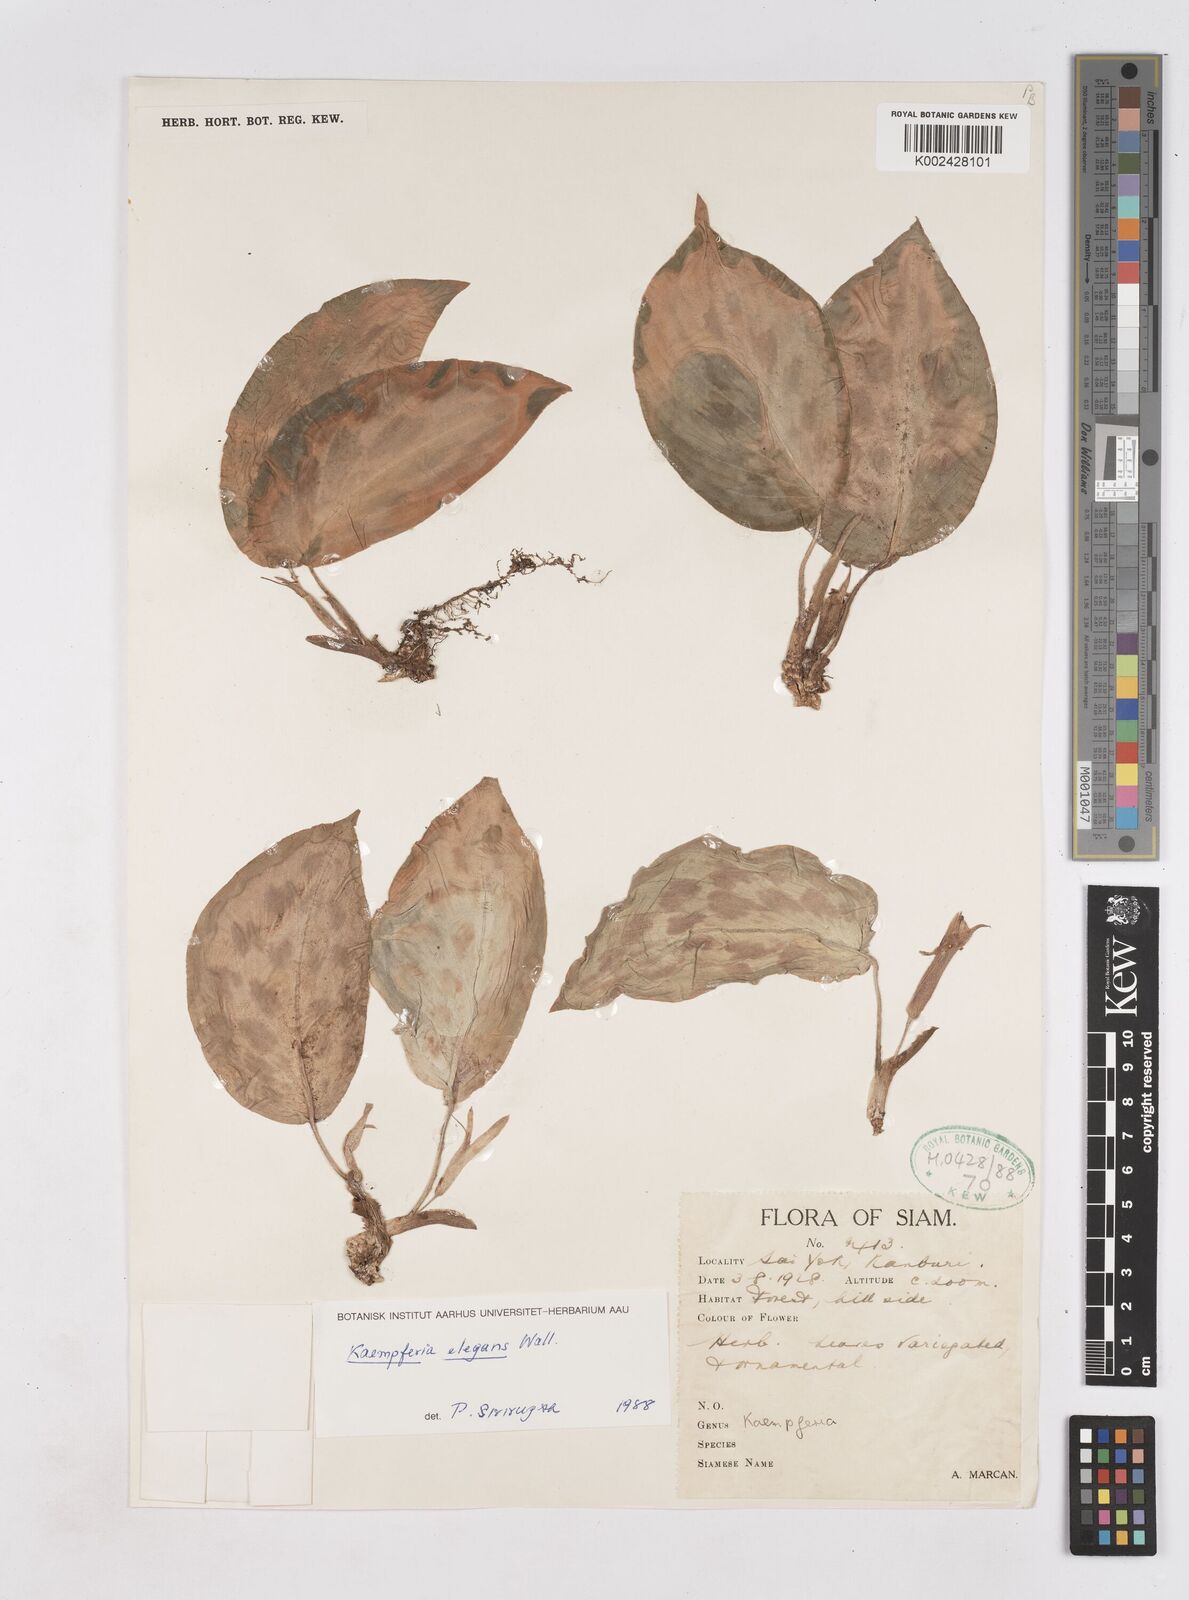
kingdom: Plantae
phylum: Tracheophyta
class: Liliopsida
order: Zingiberales
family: Zingiberaceae
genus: Kaempferia
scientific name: Kaempferia elegans
